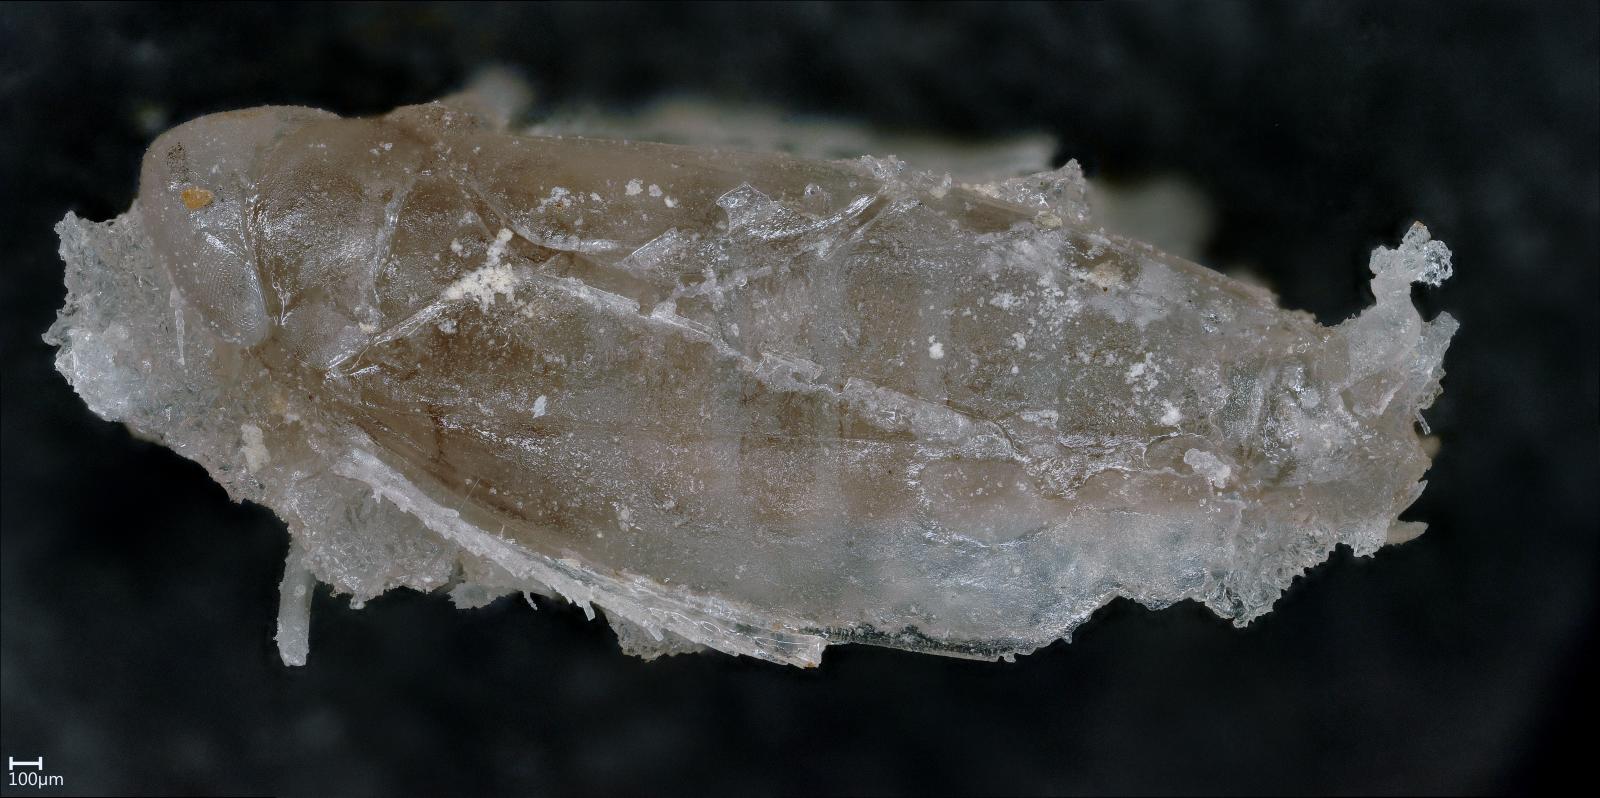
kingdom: Animalia
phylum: Arthropoda
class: Insecta
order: Hemiptera
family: Cicadellidae
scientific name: Cicadellidae
